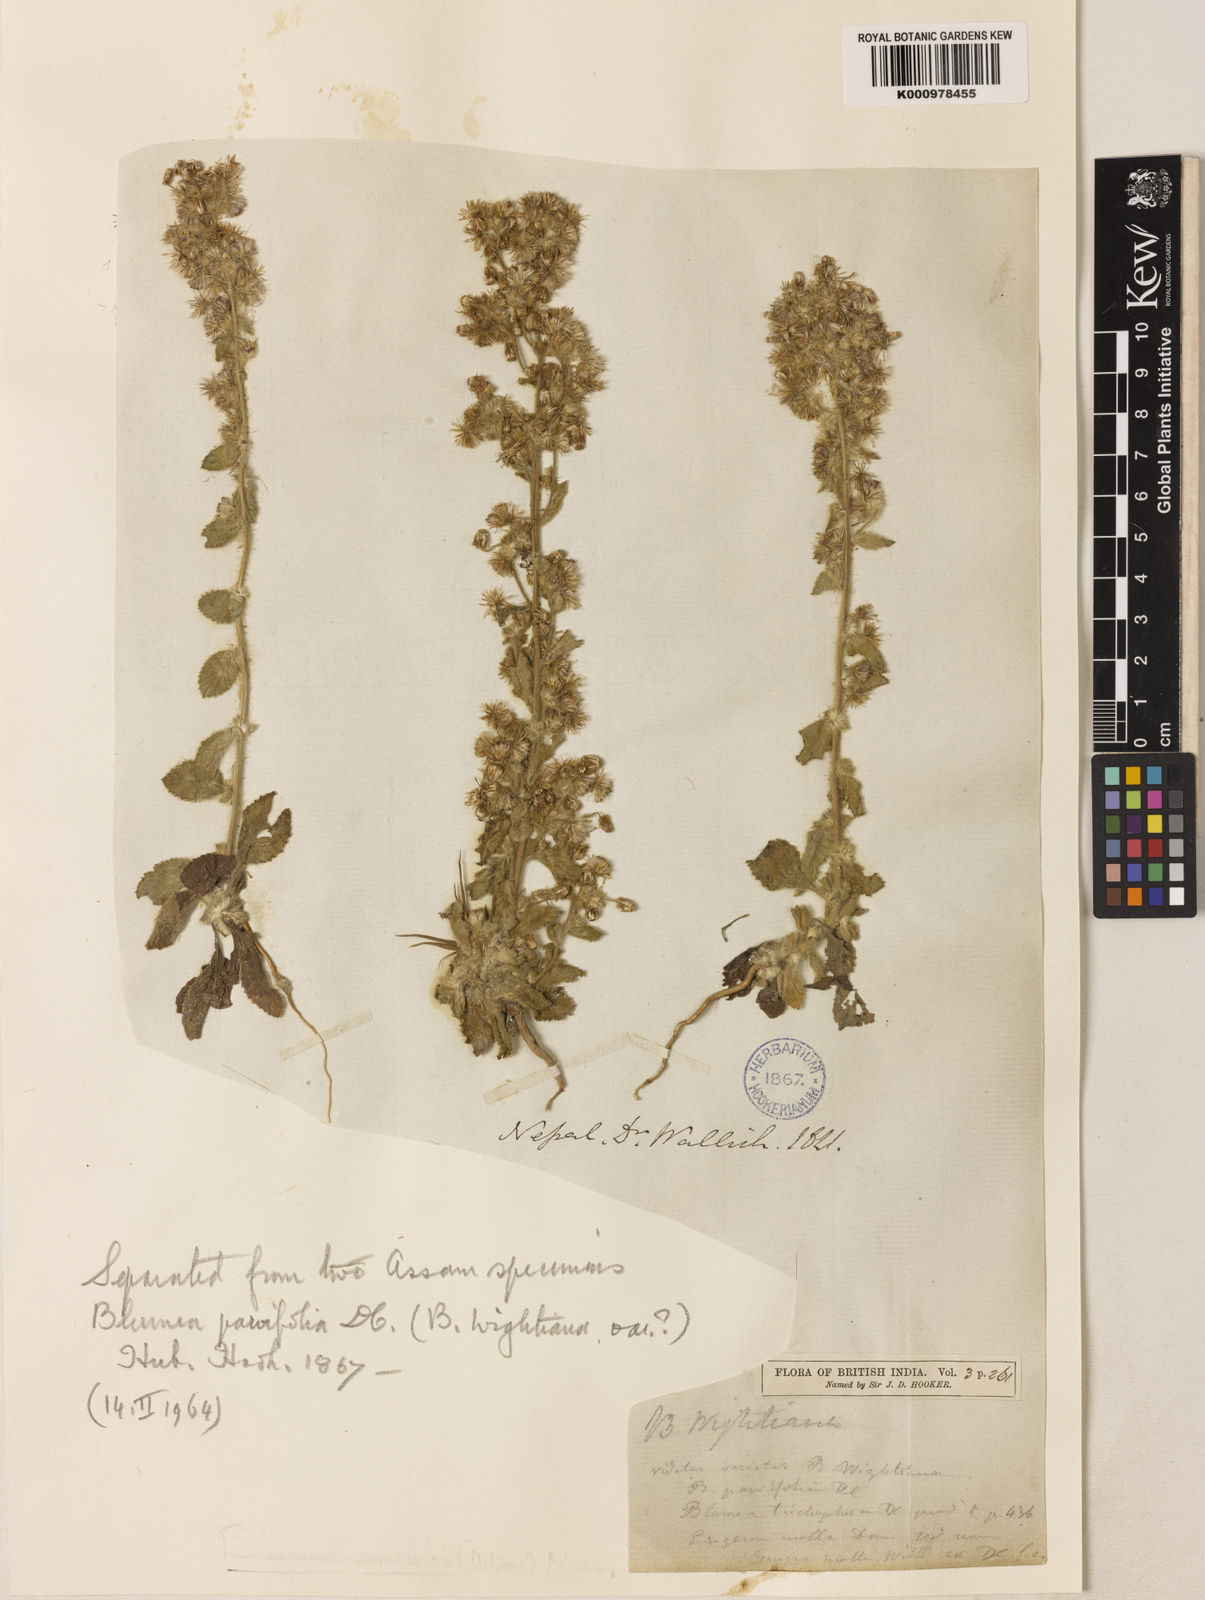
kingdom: Plantae
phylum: Tracheophyta
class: Magnoliopsida
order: Asterales
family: Asteraceae
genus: Blumea
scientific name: Blumea axillaris
